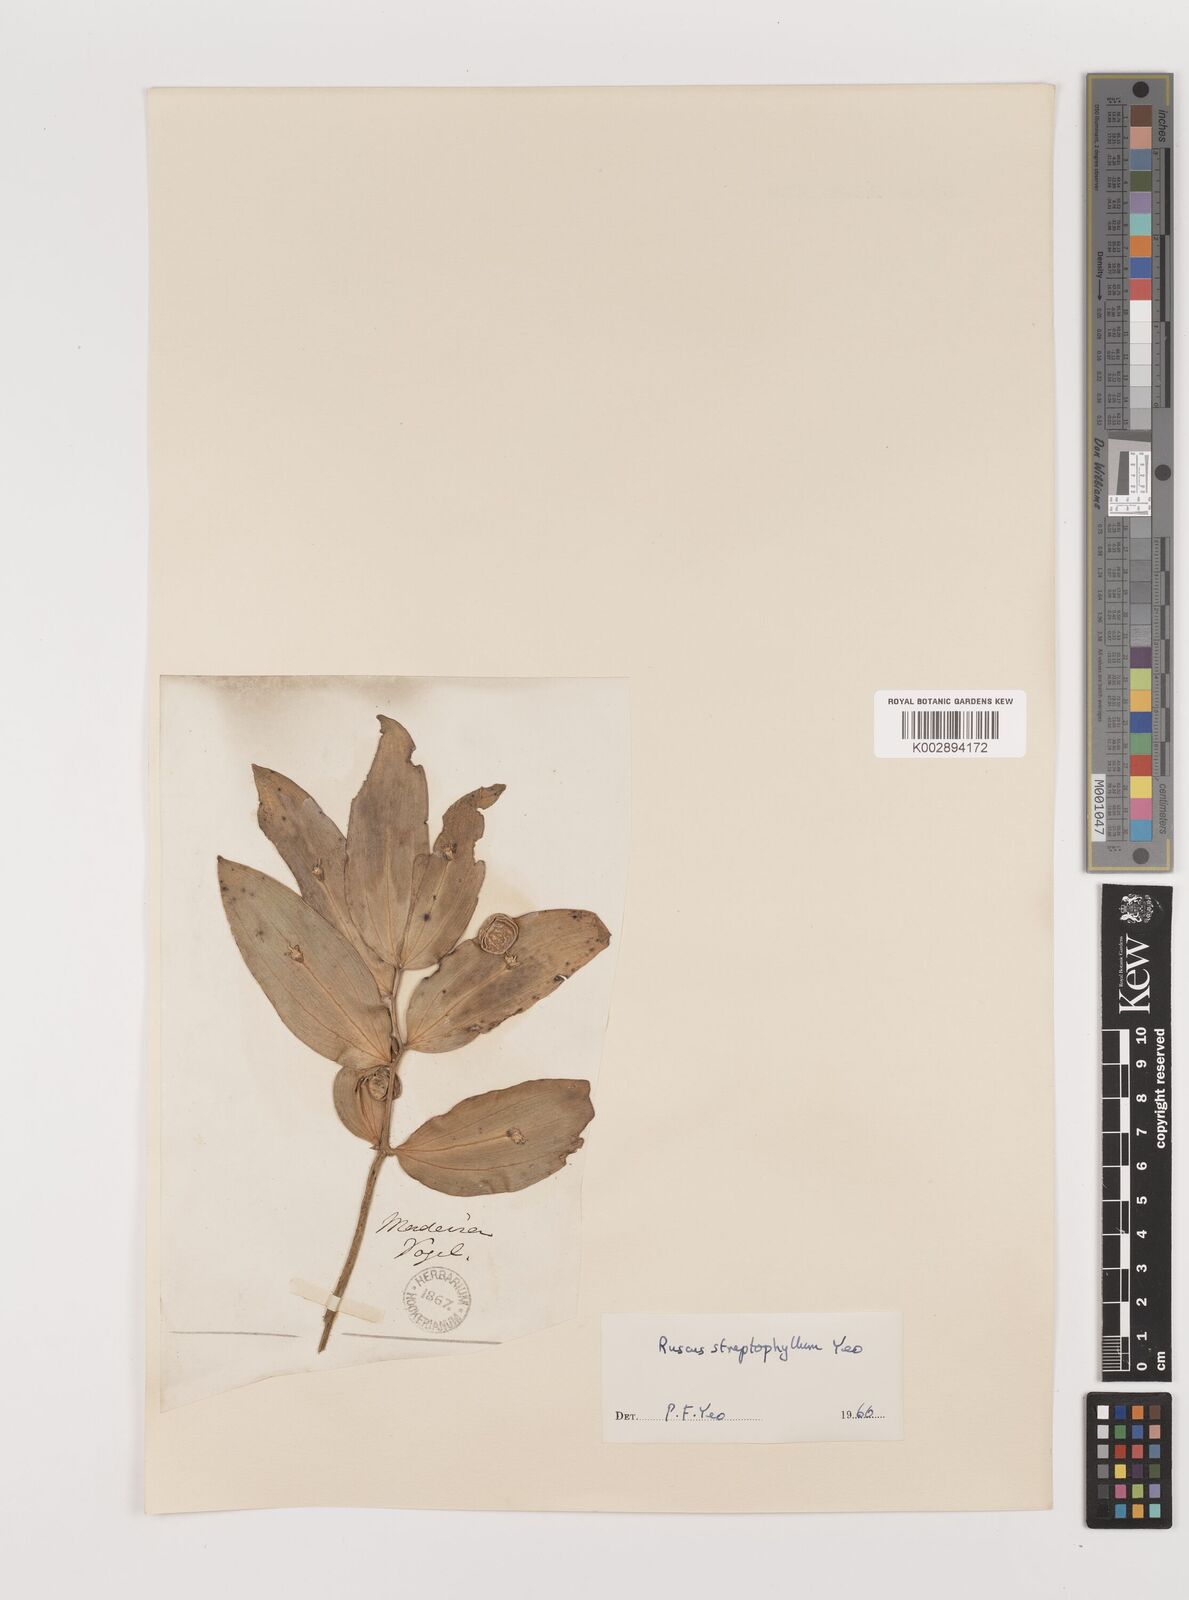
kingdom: Plantae
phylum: Tracheophyta
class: Liliopsida
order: Asparagales
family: Asparagaceae
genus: Ruscus
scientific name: Ruscus hypophyllum
